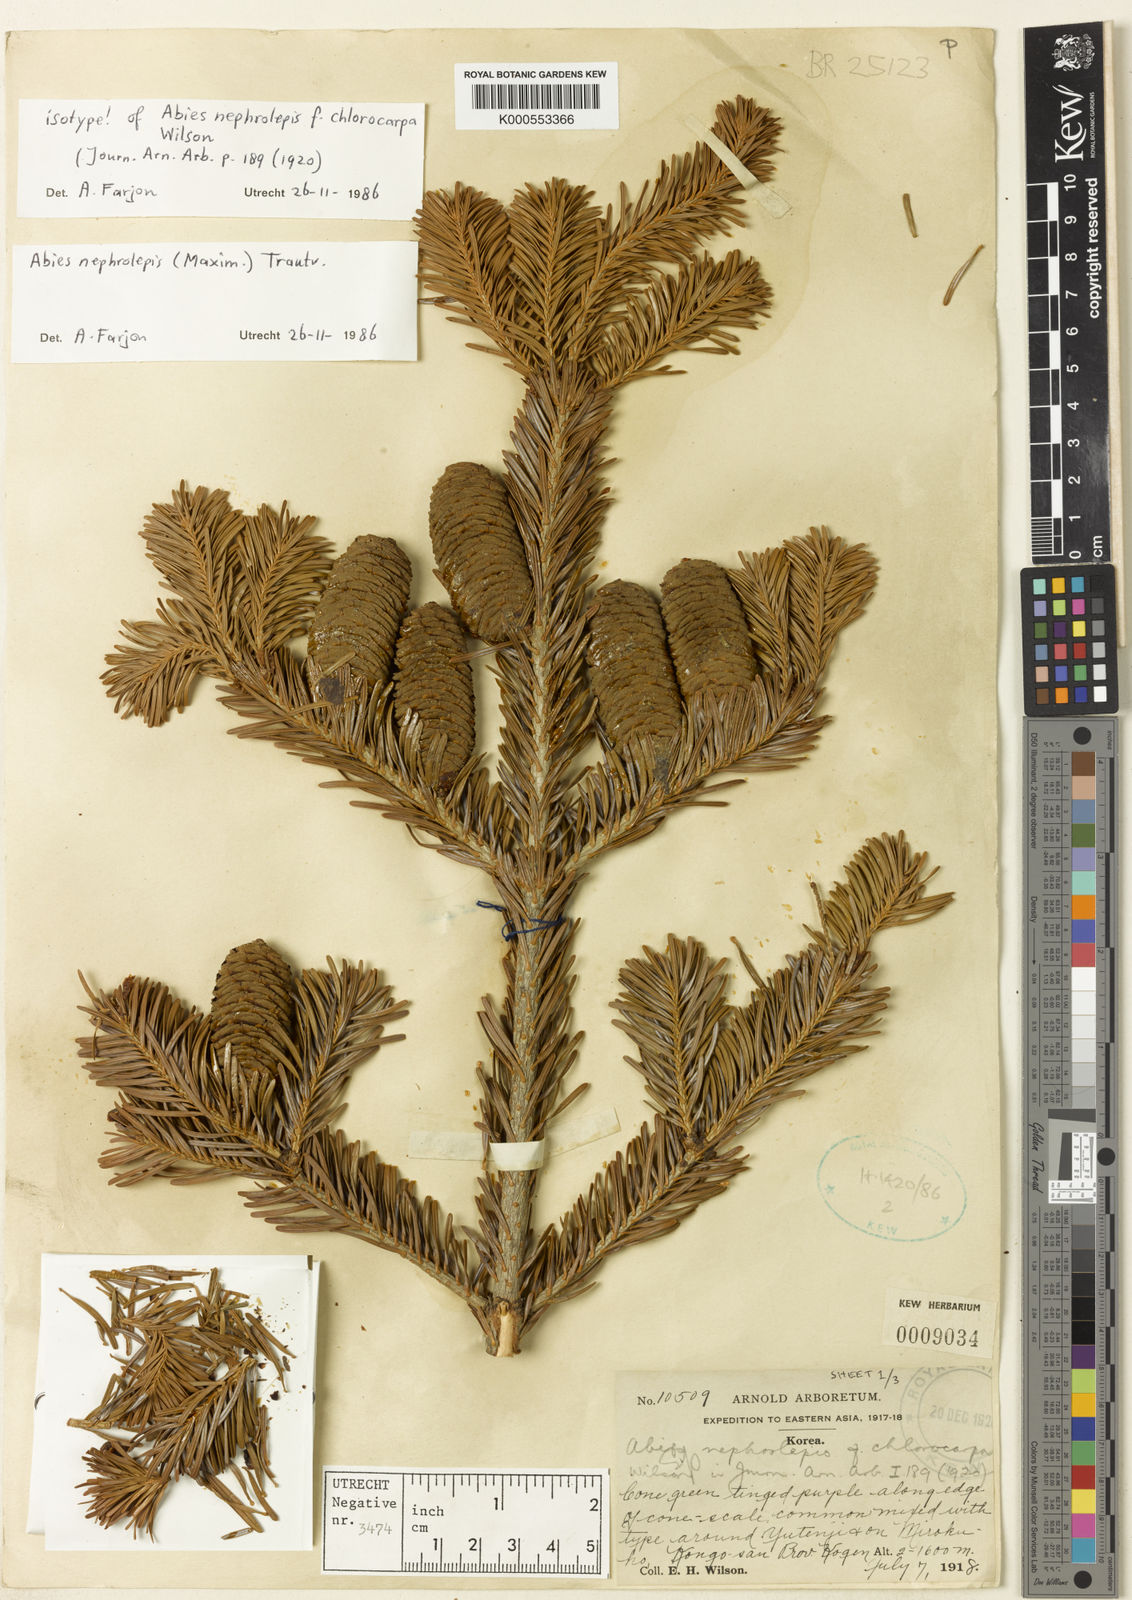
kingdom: Plantae
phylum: Tracheophyta
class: Pinopsida
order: Pinales
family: Pinaceae
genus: Abies
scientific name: Abies nephrolepis
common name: Hinggan fir
